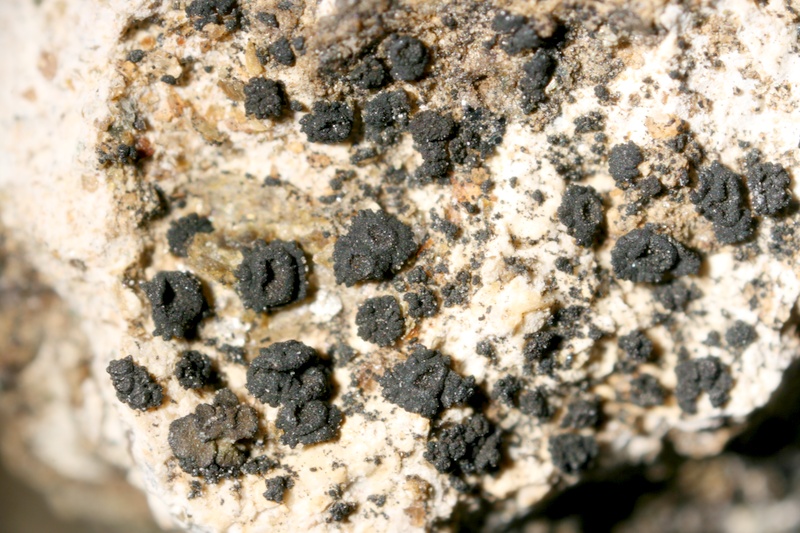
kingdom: Fungi
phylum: Ascomycota
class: Lichinomycetes
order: Lichinales
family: Lichinaceae
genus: Phloeopeccania
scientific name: Phloeopeccania
